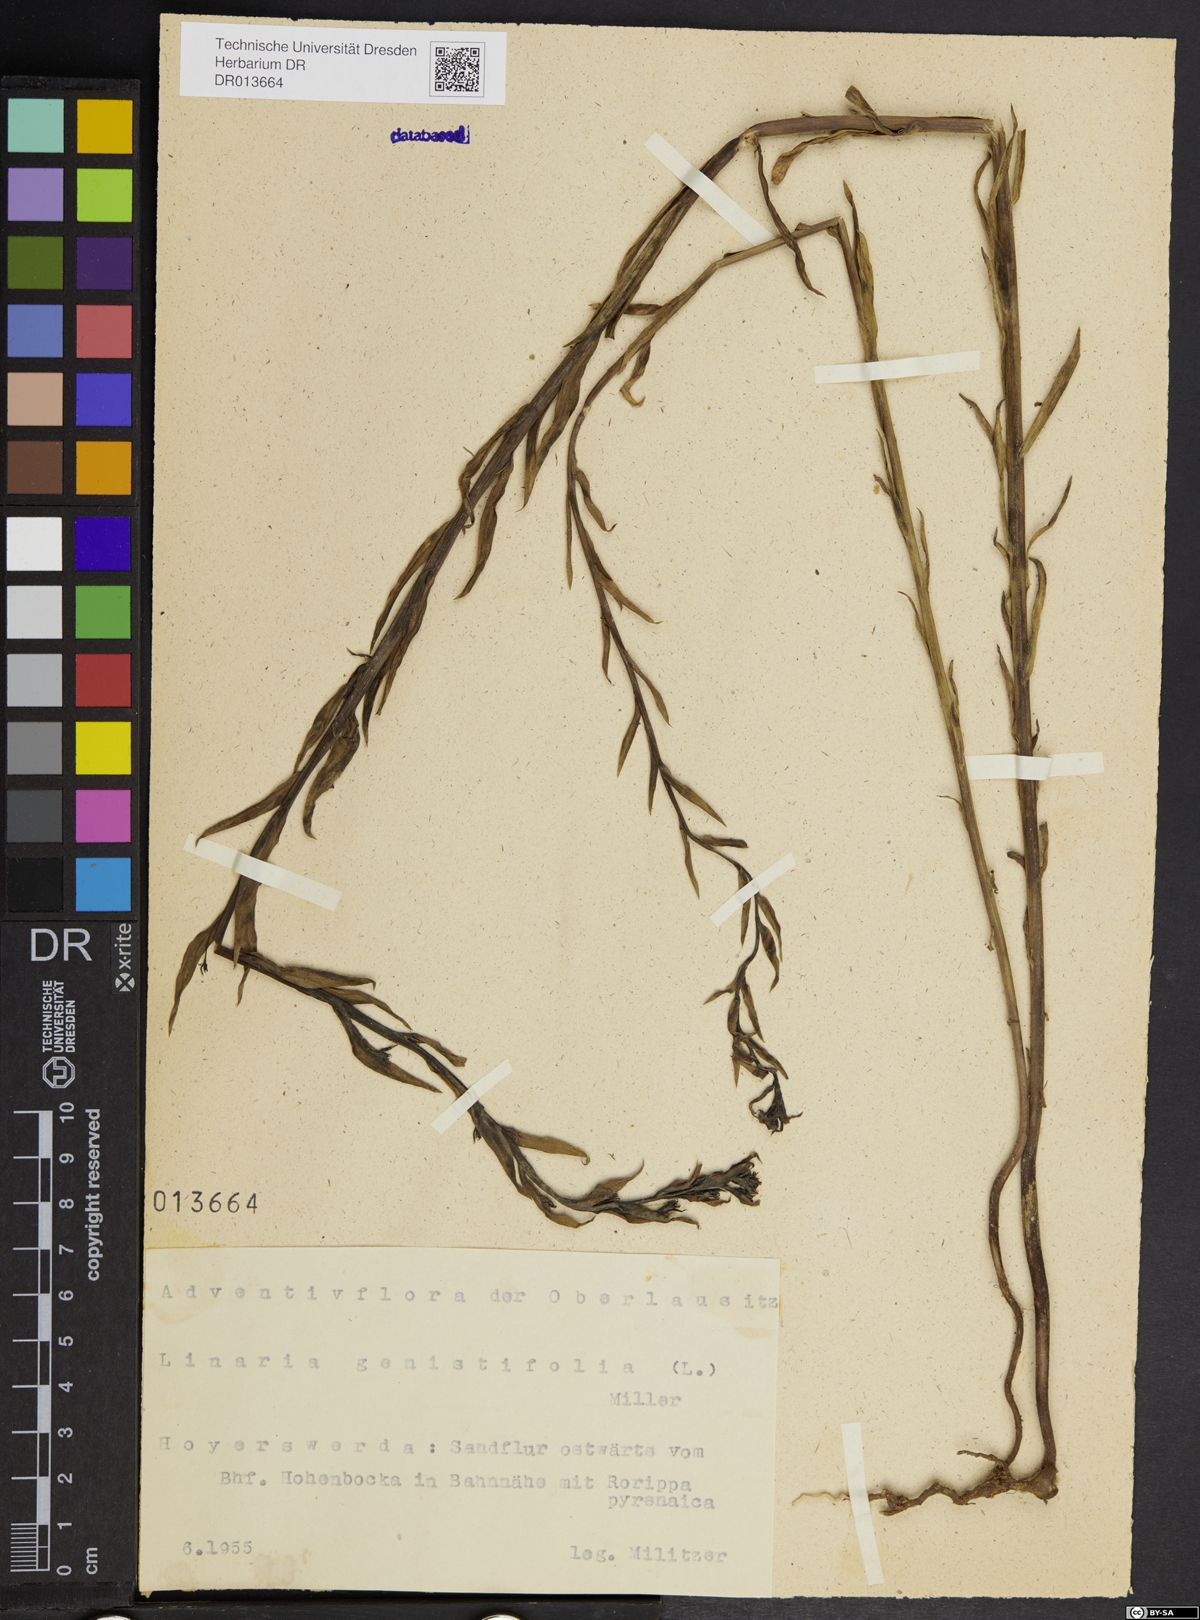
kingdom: Plantae
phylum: Tracheophyta
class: Magnoliopsida
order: Lamiales
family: Plantaginaceae
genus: Linaria
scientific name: Linaria genistifolia
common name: Broomleaf toadflax
